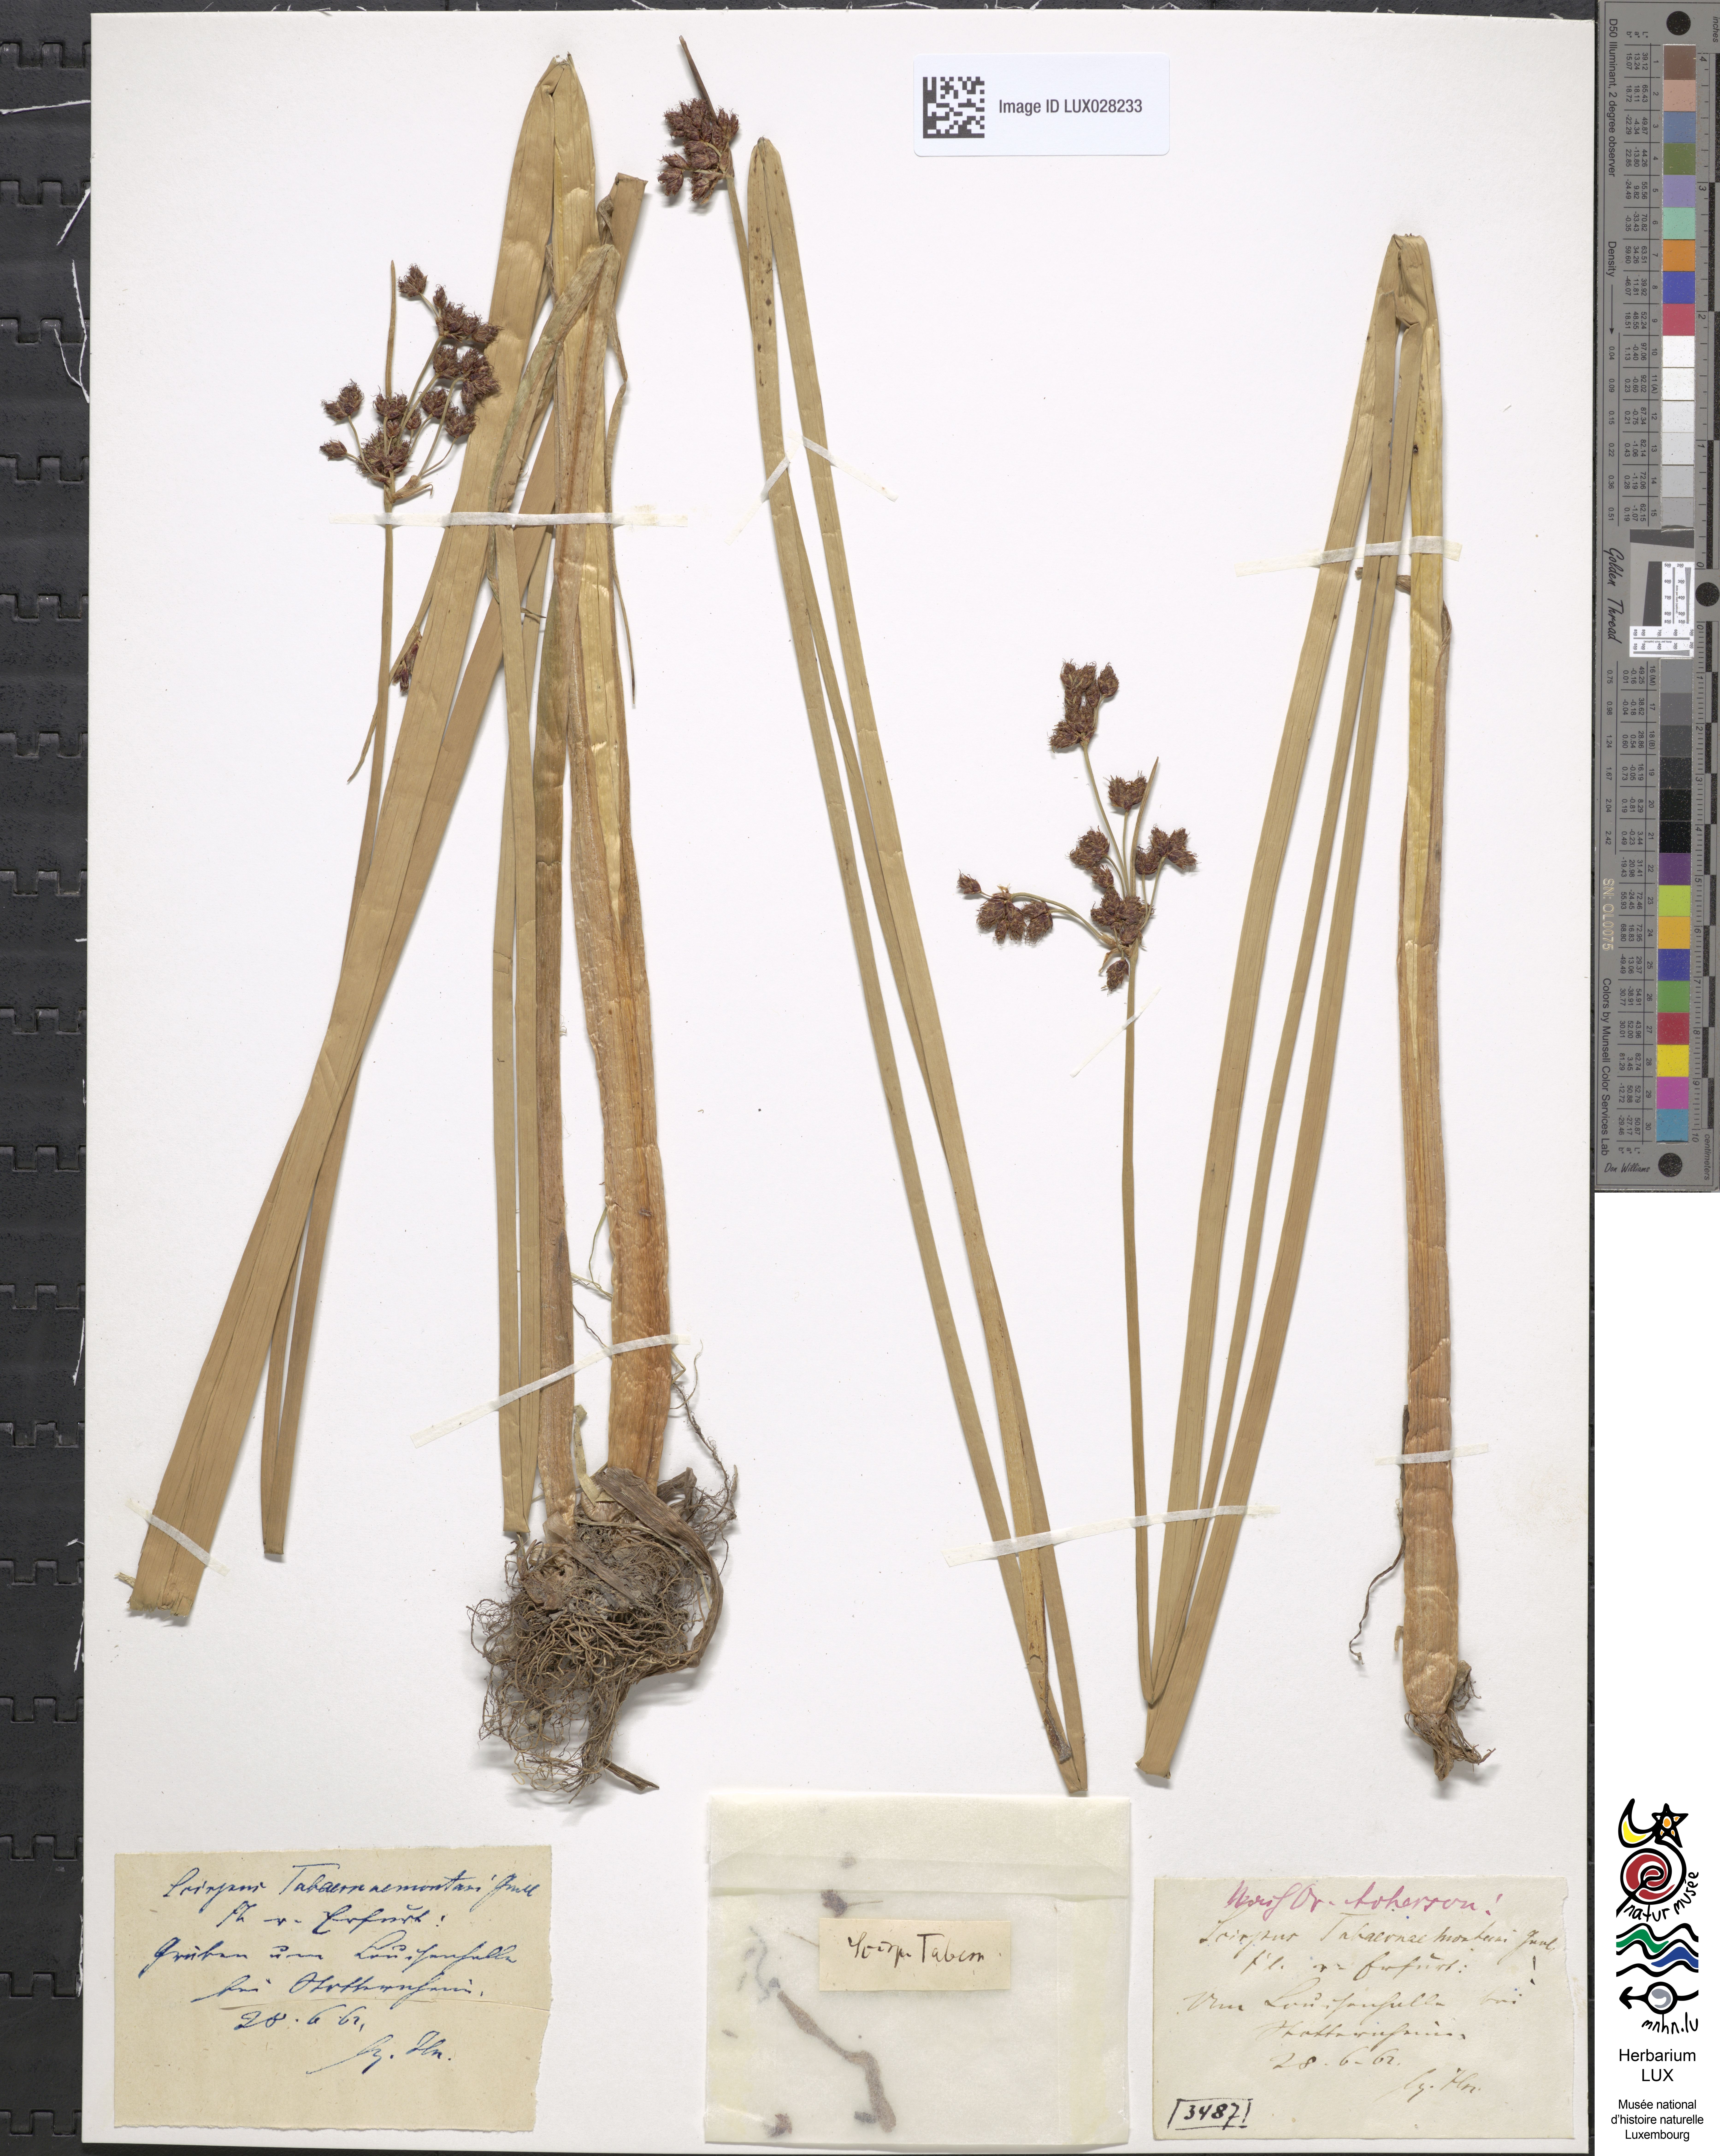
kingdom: Plantae
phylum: Tracheophyta
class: Liliopsida
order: Poales
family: Cyperaceae
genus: Schoenoplectus
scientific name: Schoenoplectus tabernaemontani
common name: Grey club-rush
